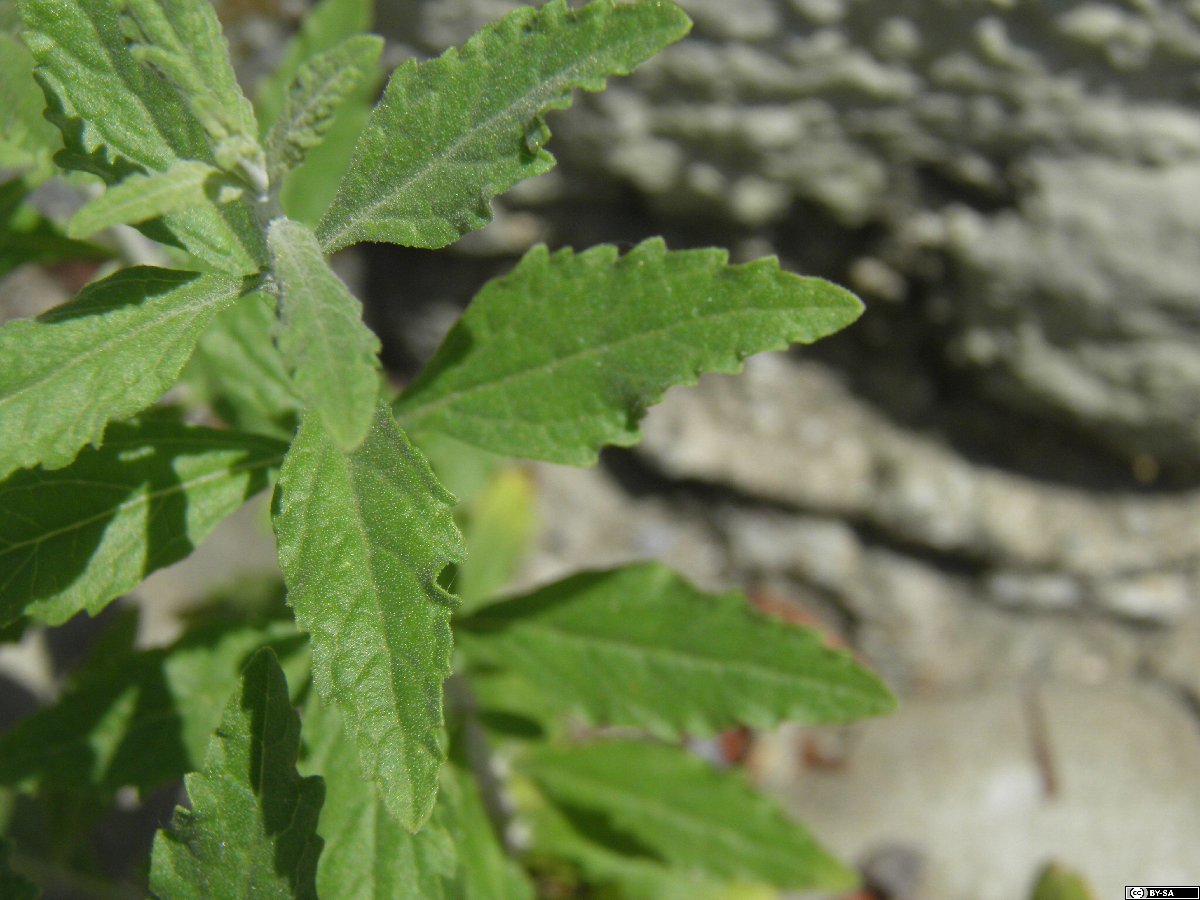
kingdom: Plantae
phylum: Tracheophyta
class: Magnoliopsida
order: Lamiales
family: Lamiaceae
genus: Salvia
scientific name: Salvia yangii
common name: Russian sage
